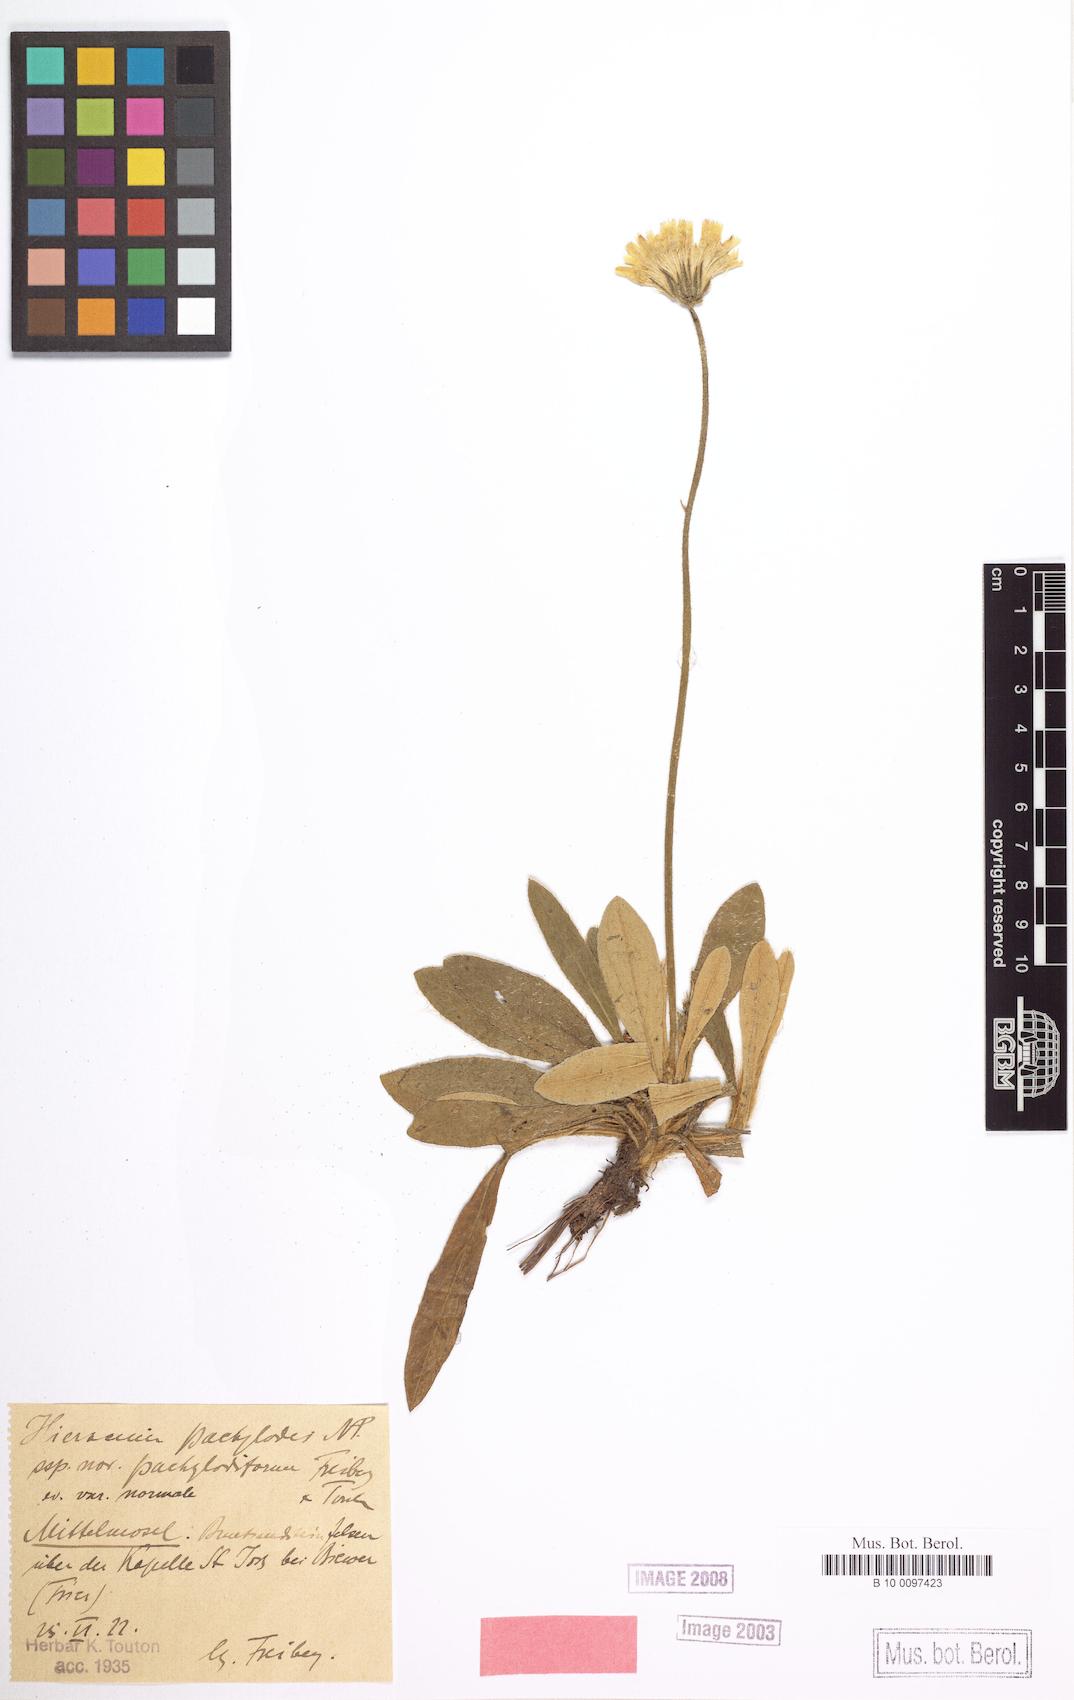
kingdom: Plantae
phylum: Tracheophyta
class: Magnoliopsida
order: Asterales
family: Asteraceae
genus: Pilosella
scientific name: Pilosella longisquama
